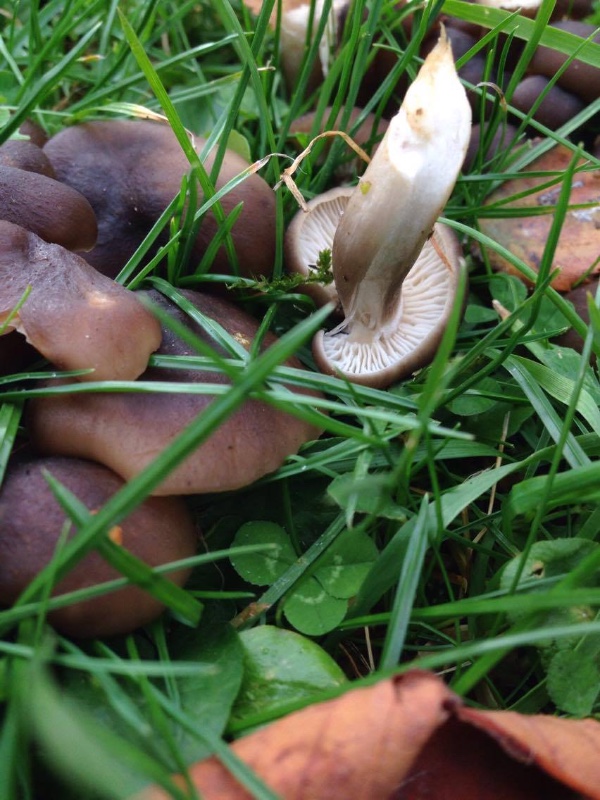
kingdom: Fungi
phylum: Basidiomycota
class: Agaricomycetes
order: Agaricales
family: Lyophyllaceae
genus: Lyophyllum
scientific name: Lyophyllum decastes
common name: røggrå gråblad
